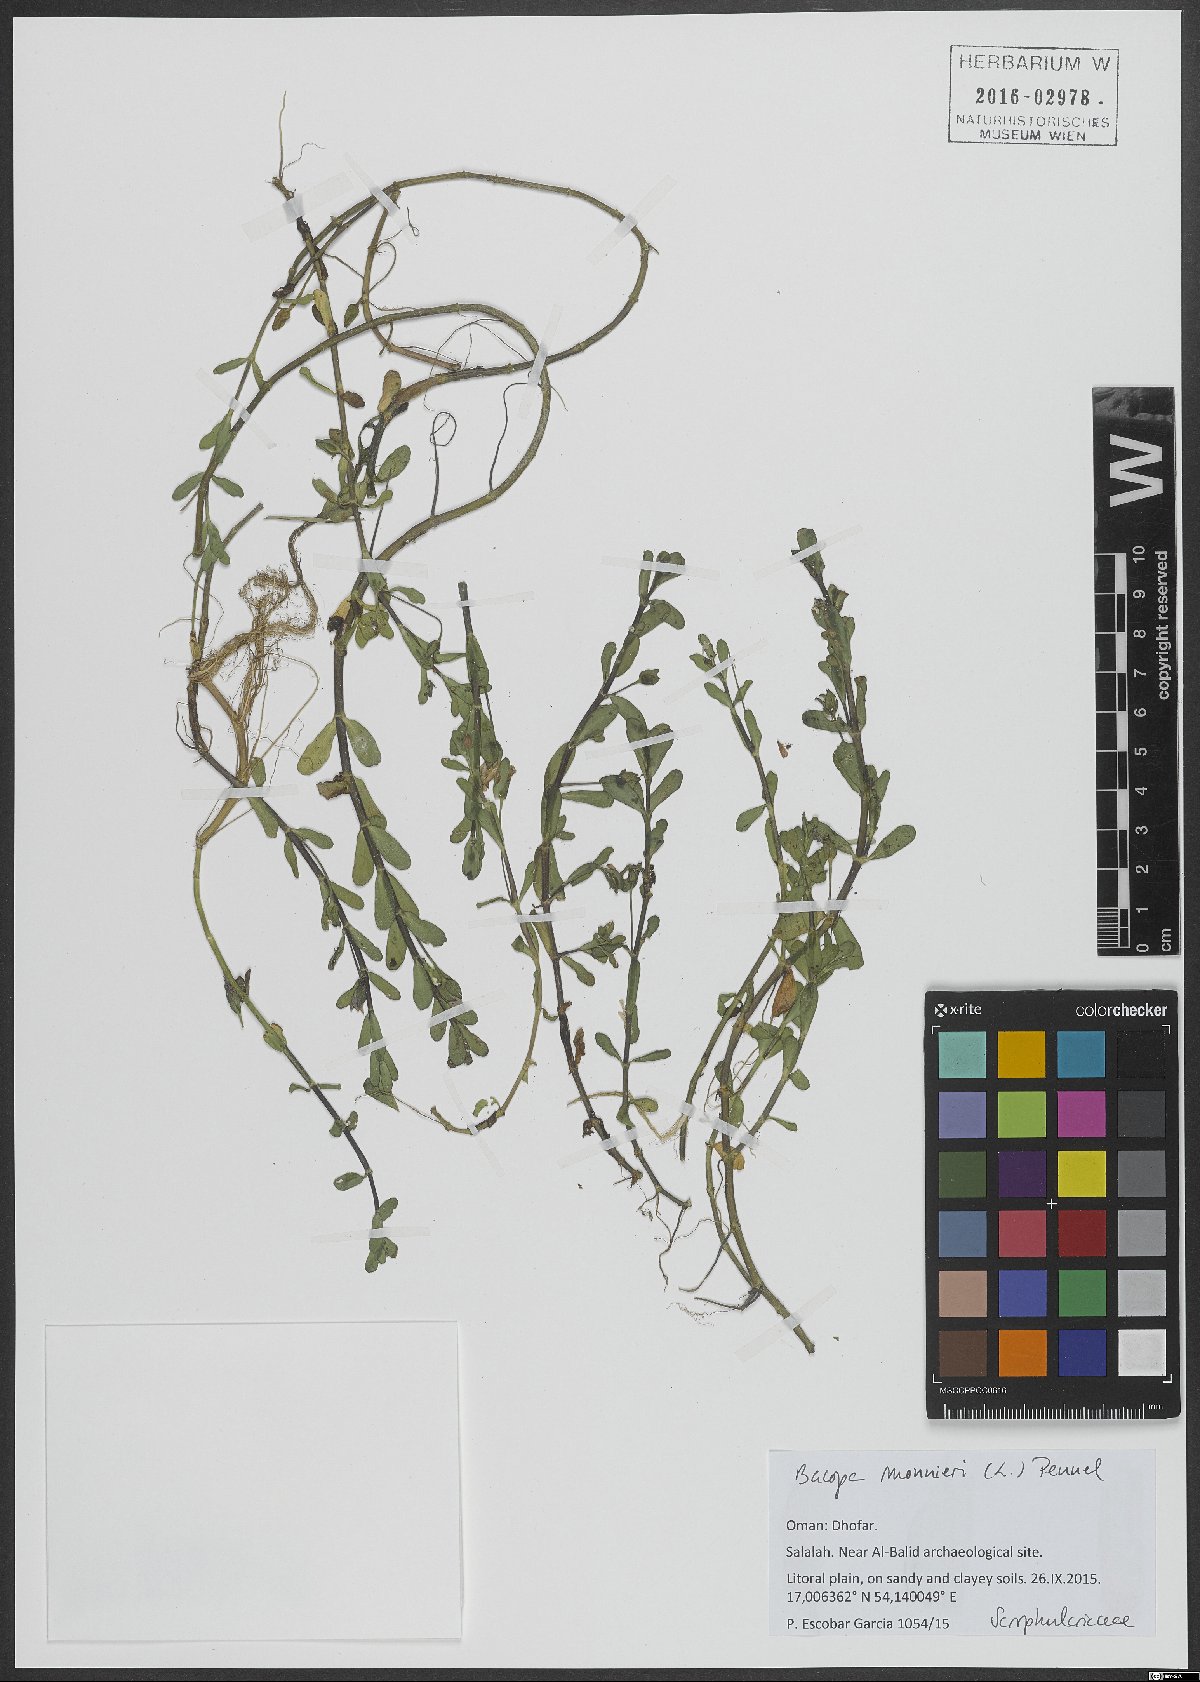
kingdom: Plantae
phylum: Tracheophyta
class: Magnoliopsida
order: Lamiales
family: Plantaginaceae
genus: Bacopa
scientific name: Bacopa monnieri
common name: Indian-pennywort
